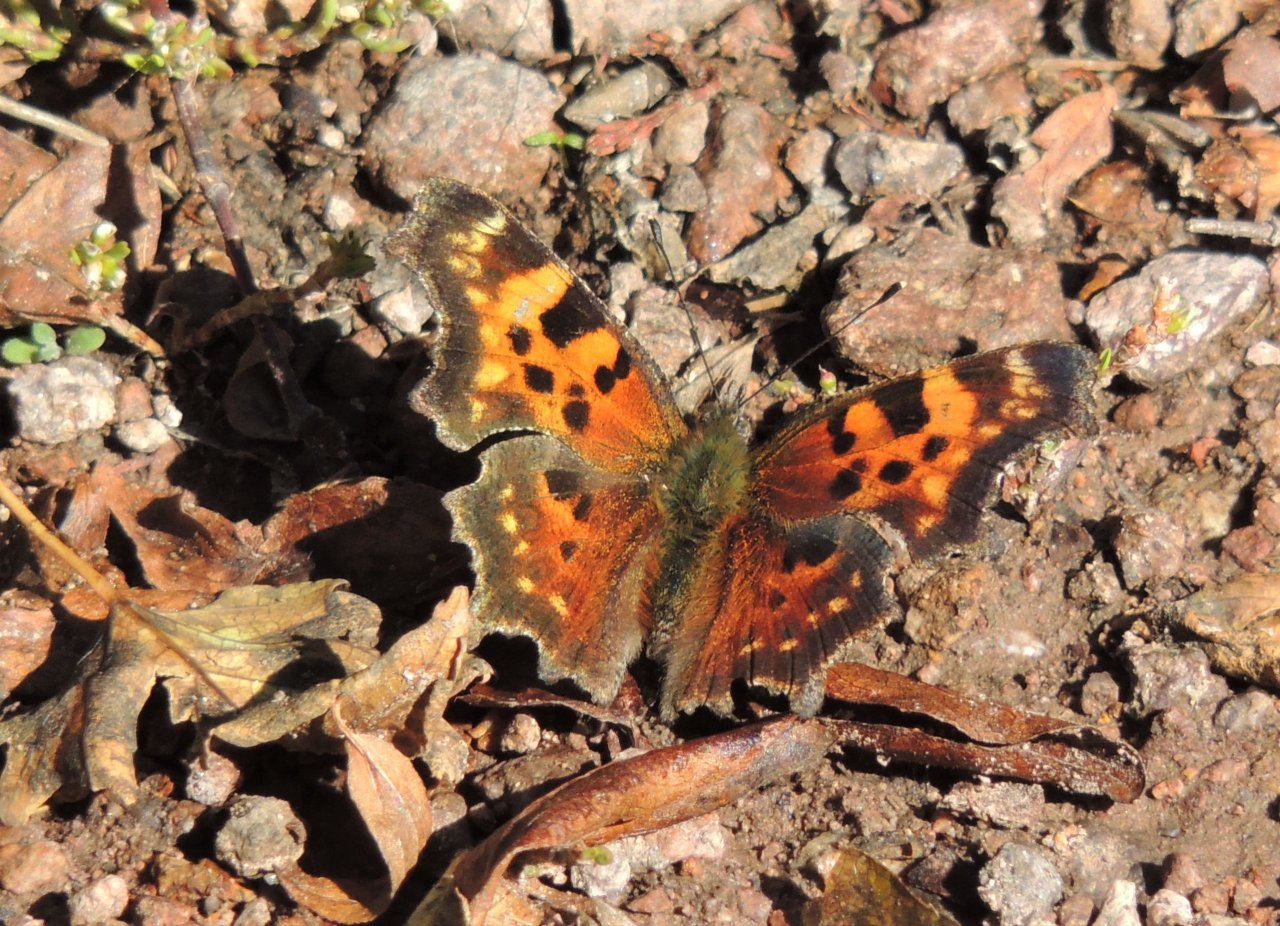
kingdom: Animalia
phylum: Arthropoda
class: Insecta
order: Lepidoptera
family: Nymphalidae
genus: Polygonia
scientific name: Polygonia faunus
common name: Green Comma
